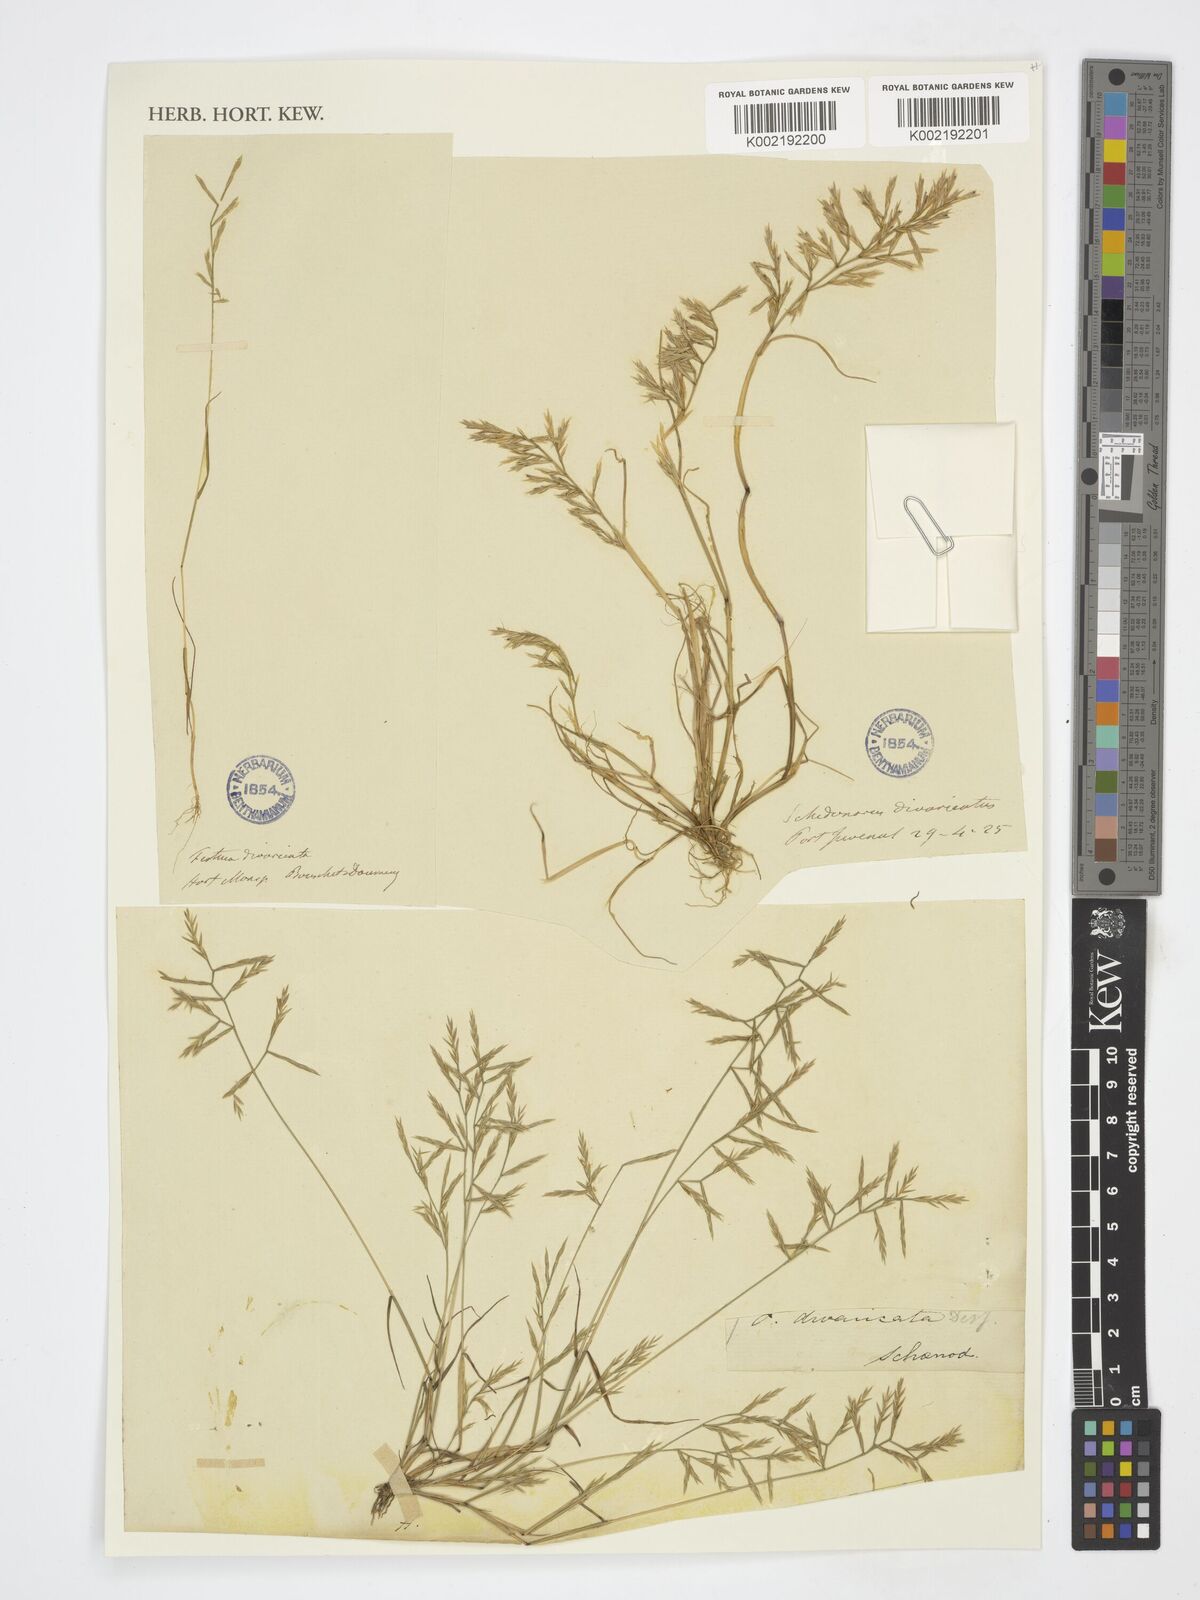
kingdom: Plantae
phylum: Tracheophyta
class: Liliopsida
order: Poales
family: Poaceae
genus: Cutandia
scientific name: Cutandia
